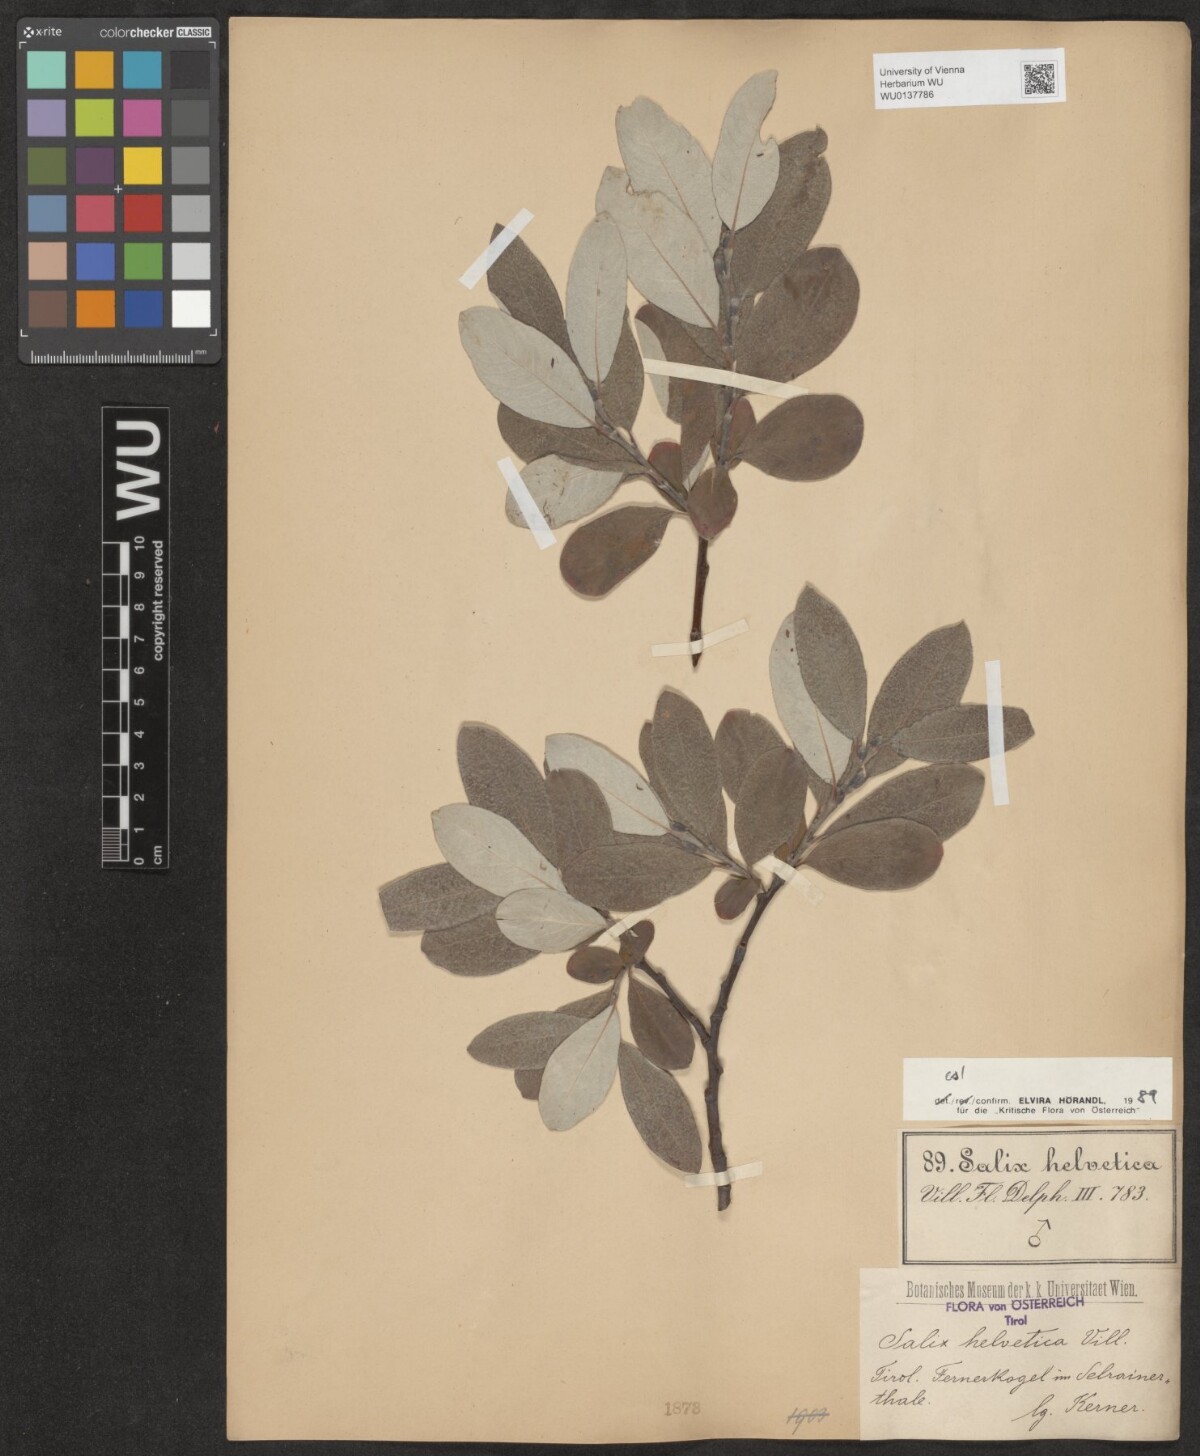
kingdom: Plantae
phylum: Tracheophyta
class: Magnoliopsida
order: Malpighiales
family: Salicaceae
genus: Salix
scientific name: Salix helvetica
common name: Swiss willow
